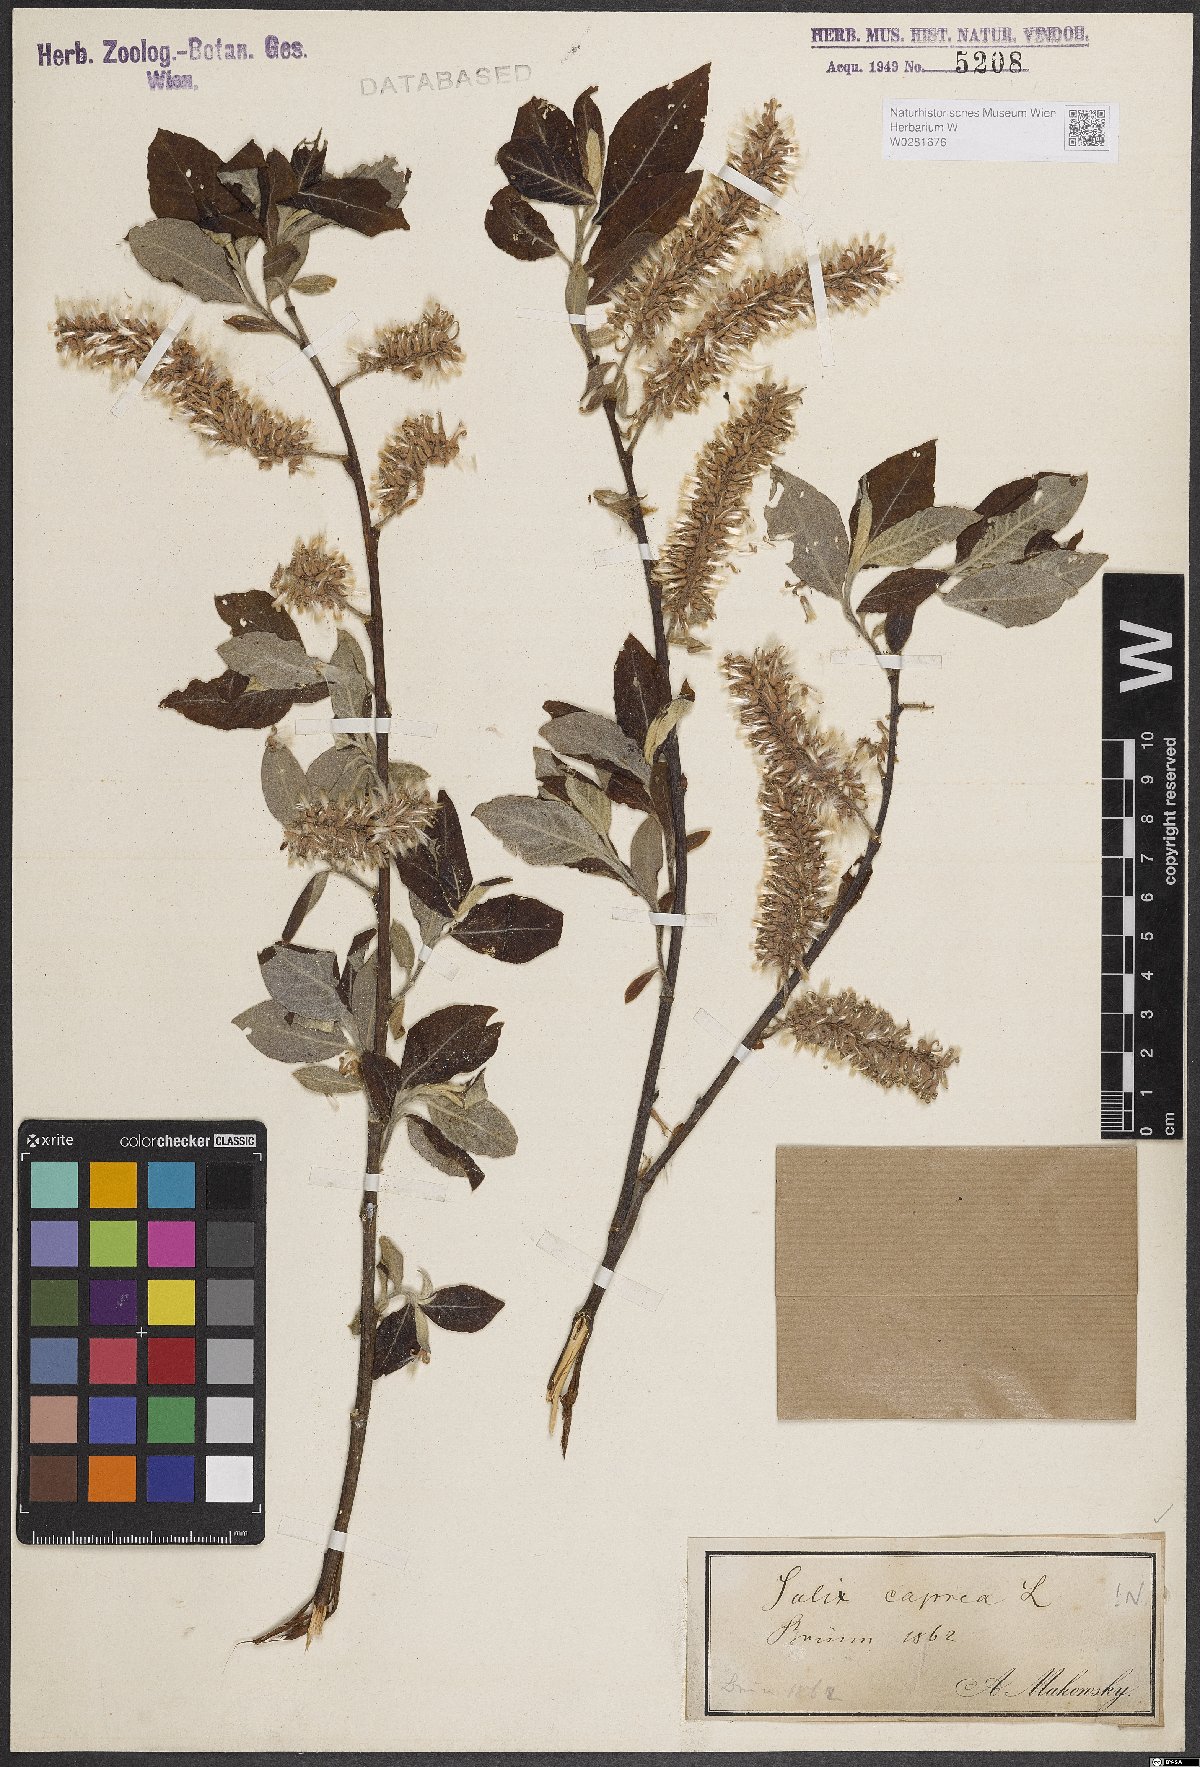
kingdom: Plantae
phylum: Tracheophyta
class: Magnoliopsida
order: Malpighiales
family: Salicaceae
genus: Salix
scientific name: Salix caprea
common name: Goat willow
